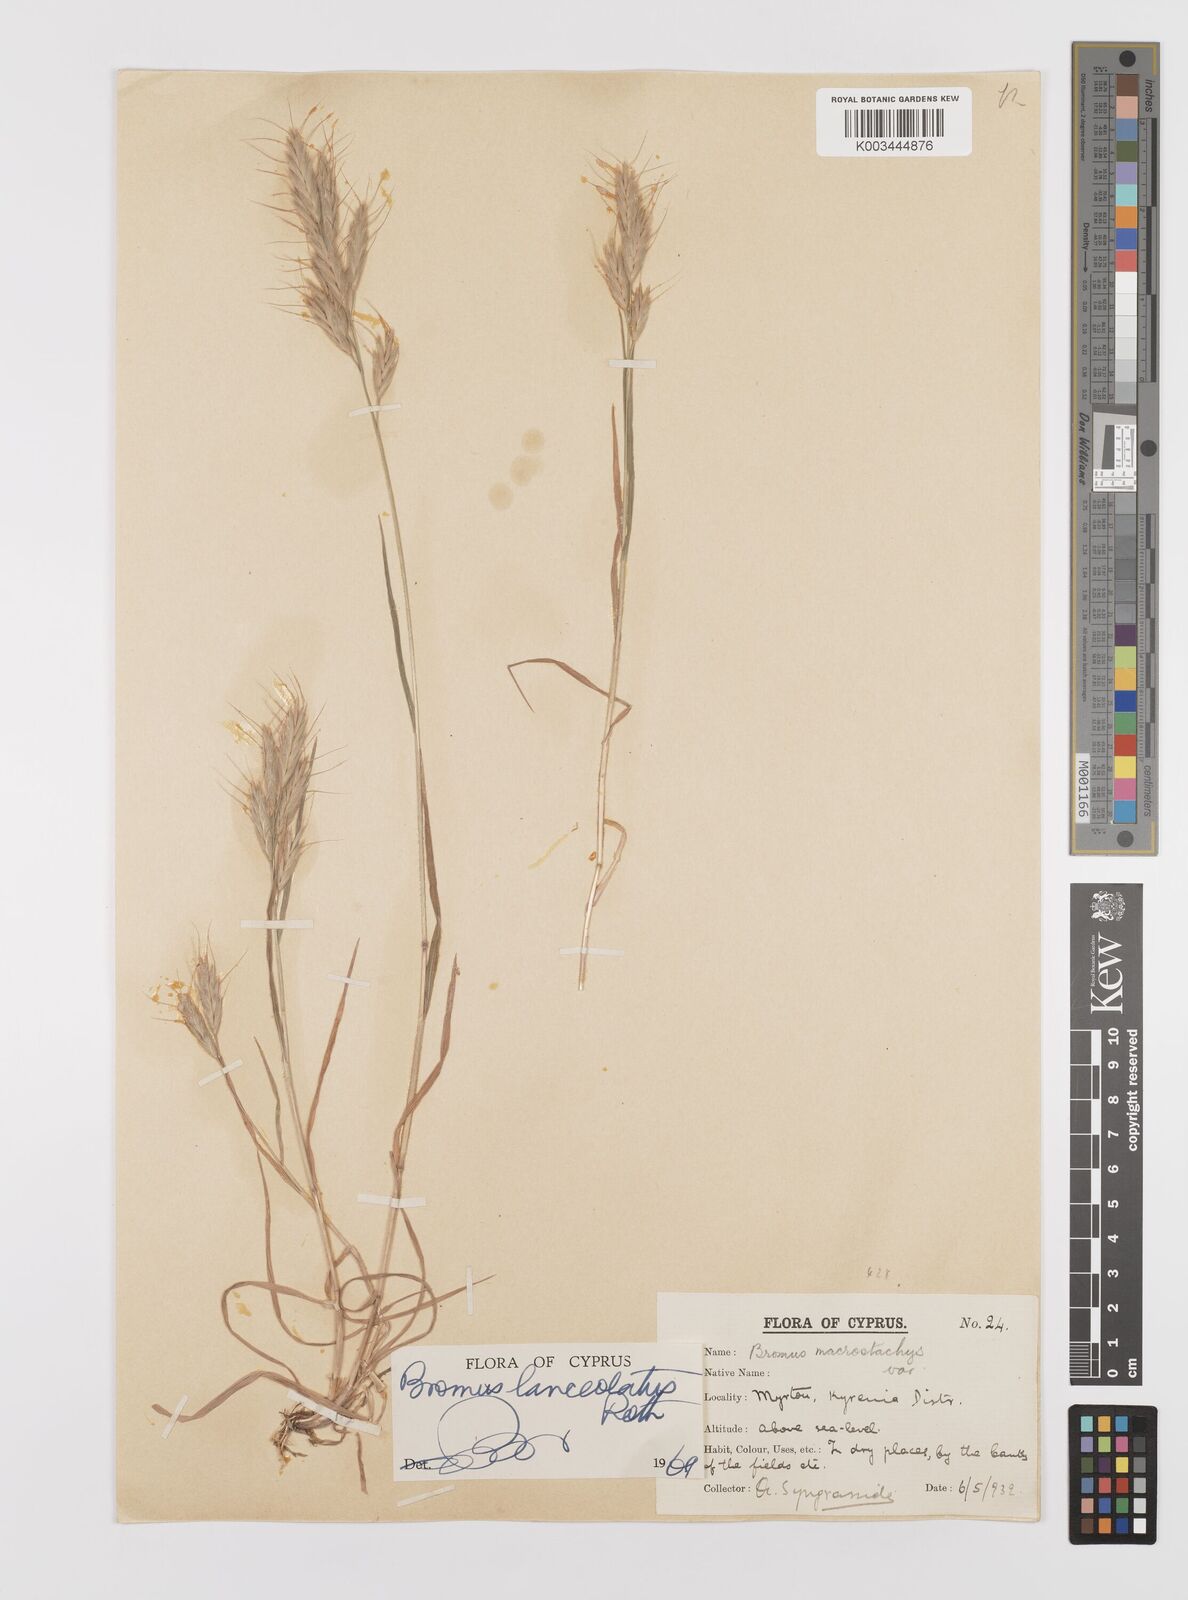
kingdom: Plantae
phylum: Tracheophyta
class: Liliopsida
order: Poales
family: Poaceae
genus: Bromus
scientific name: Bromus lanceolatus
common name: Mediterranean brome
